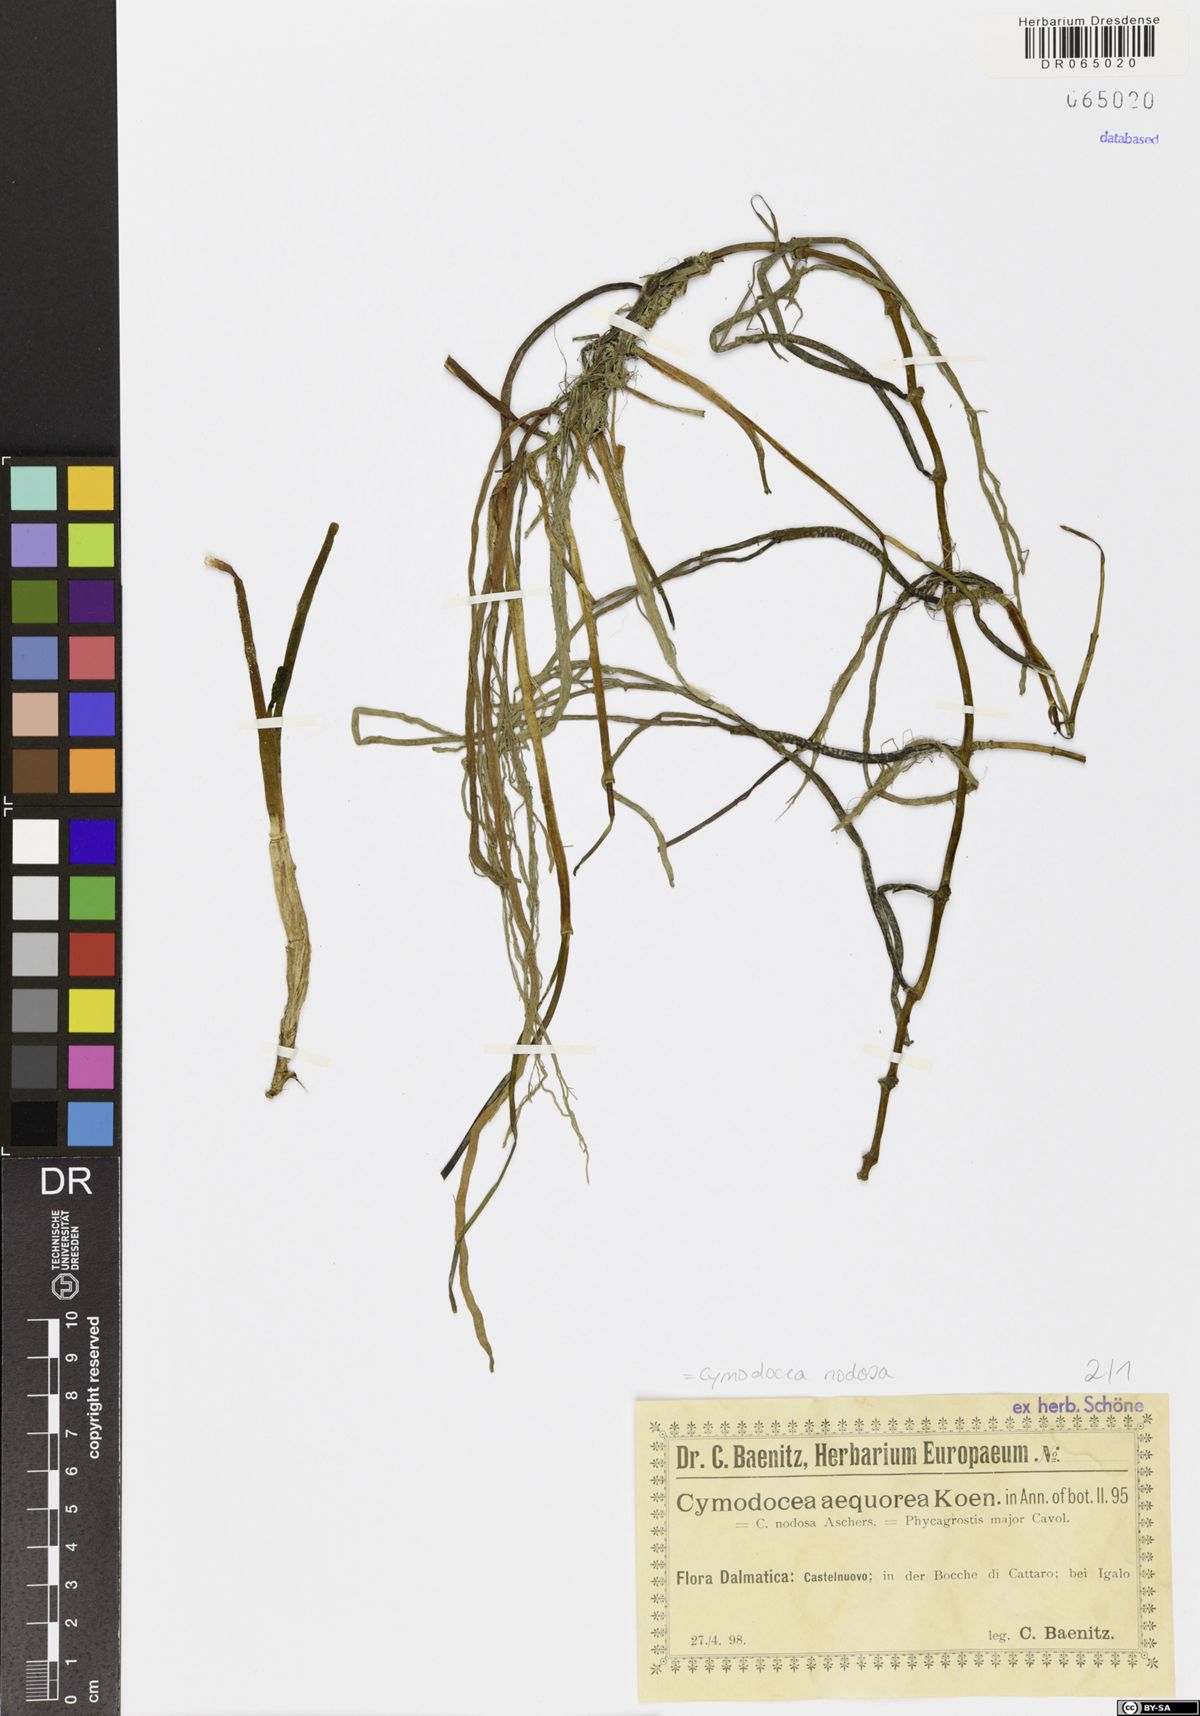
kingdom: Plantae
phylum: Tracheophyta
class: Liliopsida
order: Alismatales
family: Cymodoceaceae
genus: Cymodocea
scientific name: Cymodocea nodosa
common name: Slender seagrass
